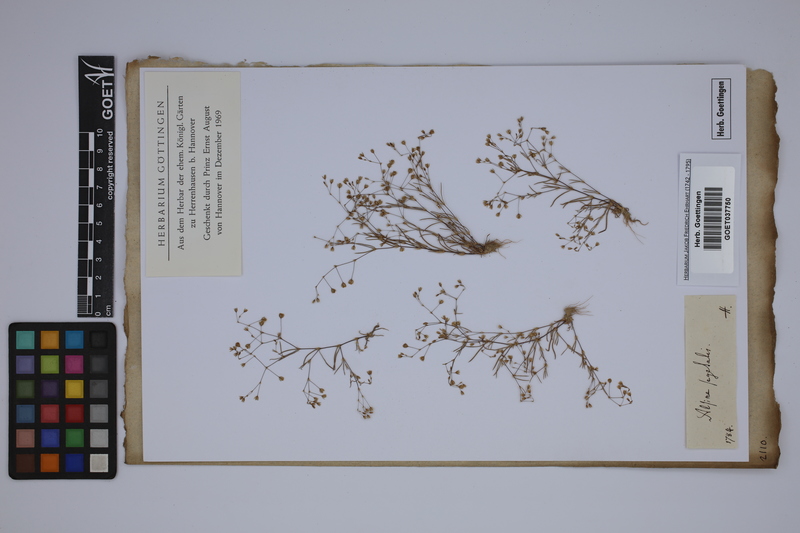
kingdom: Plantae
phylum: Tracheophyta
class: Magnoliopsida
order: Caryophyllales
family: Caryophyllaceae
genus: Spergularia
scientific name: Spergularia segetalis
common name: Corn sand spurrey
